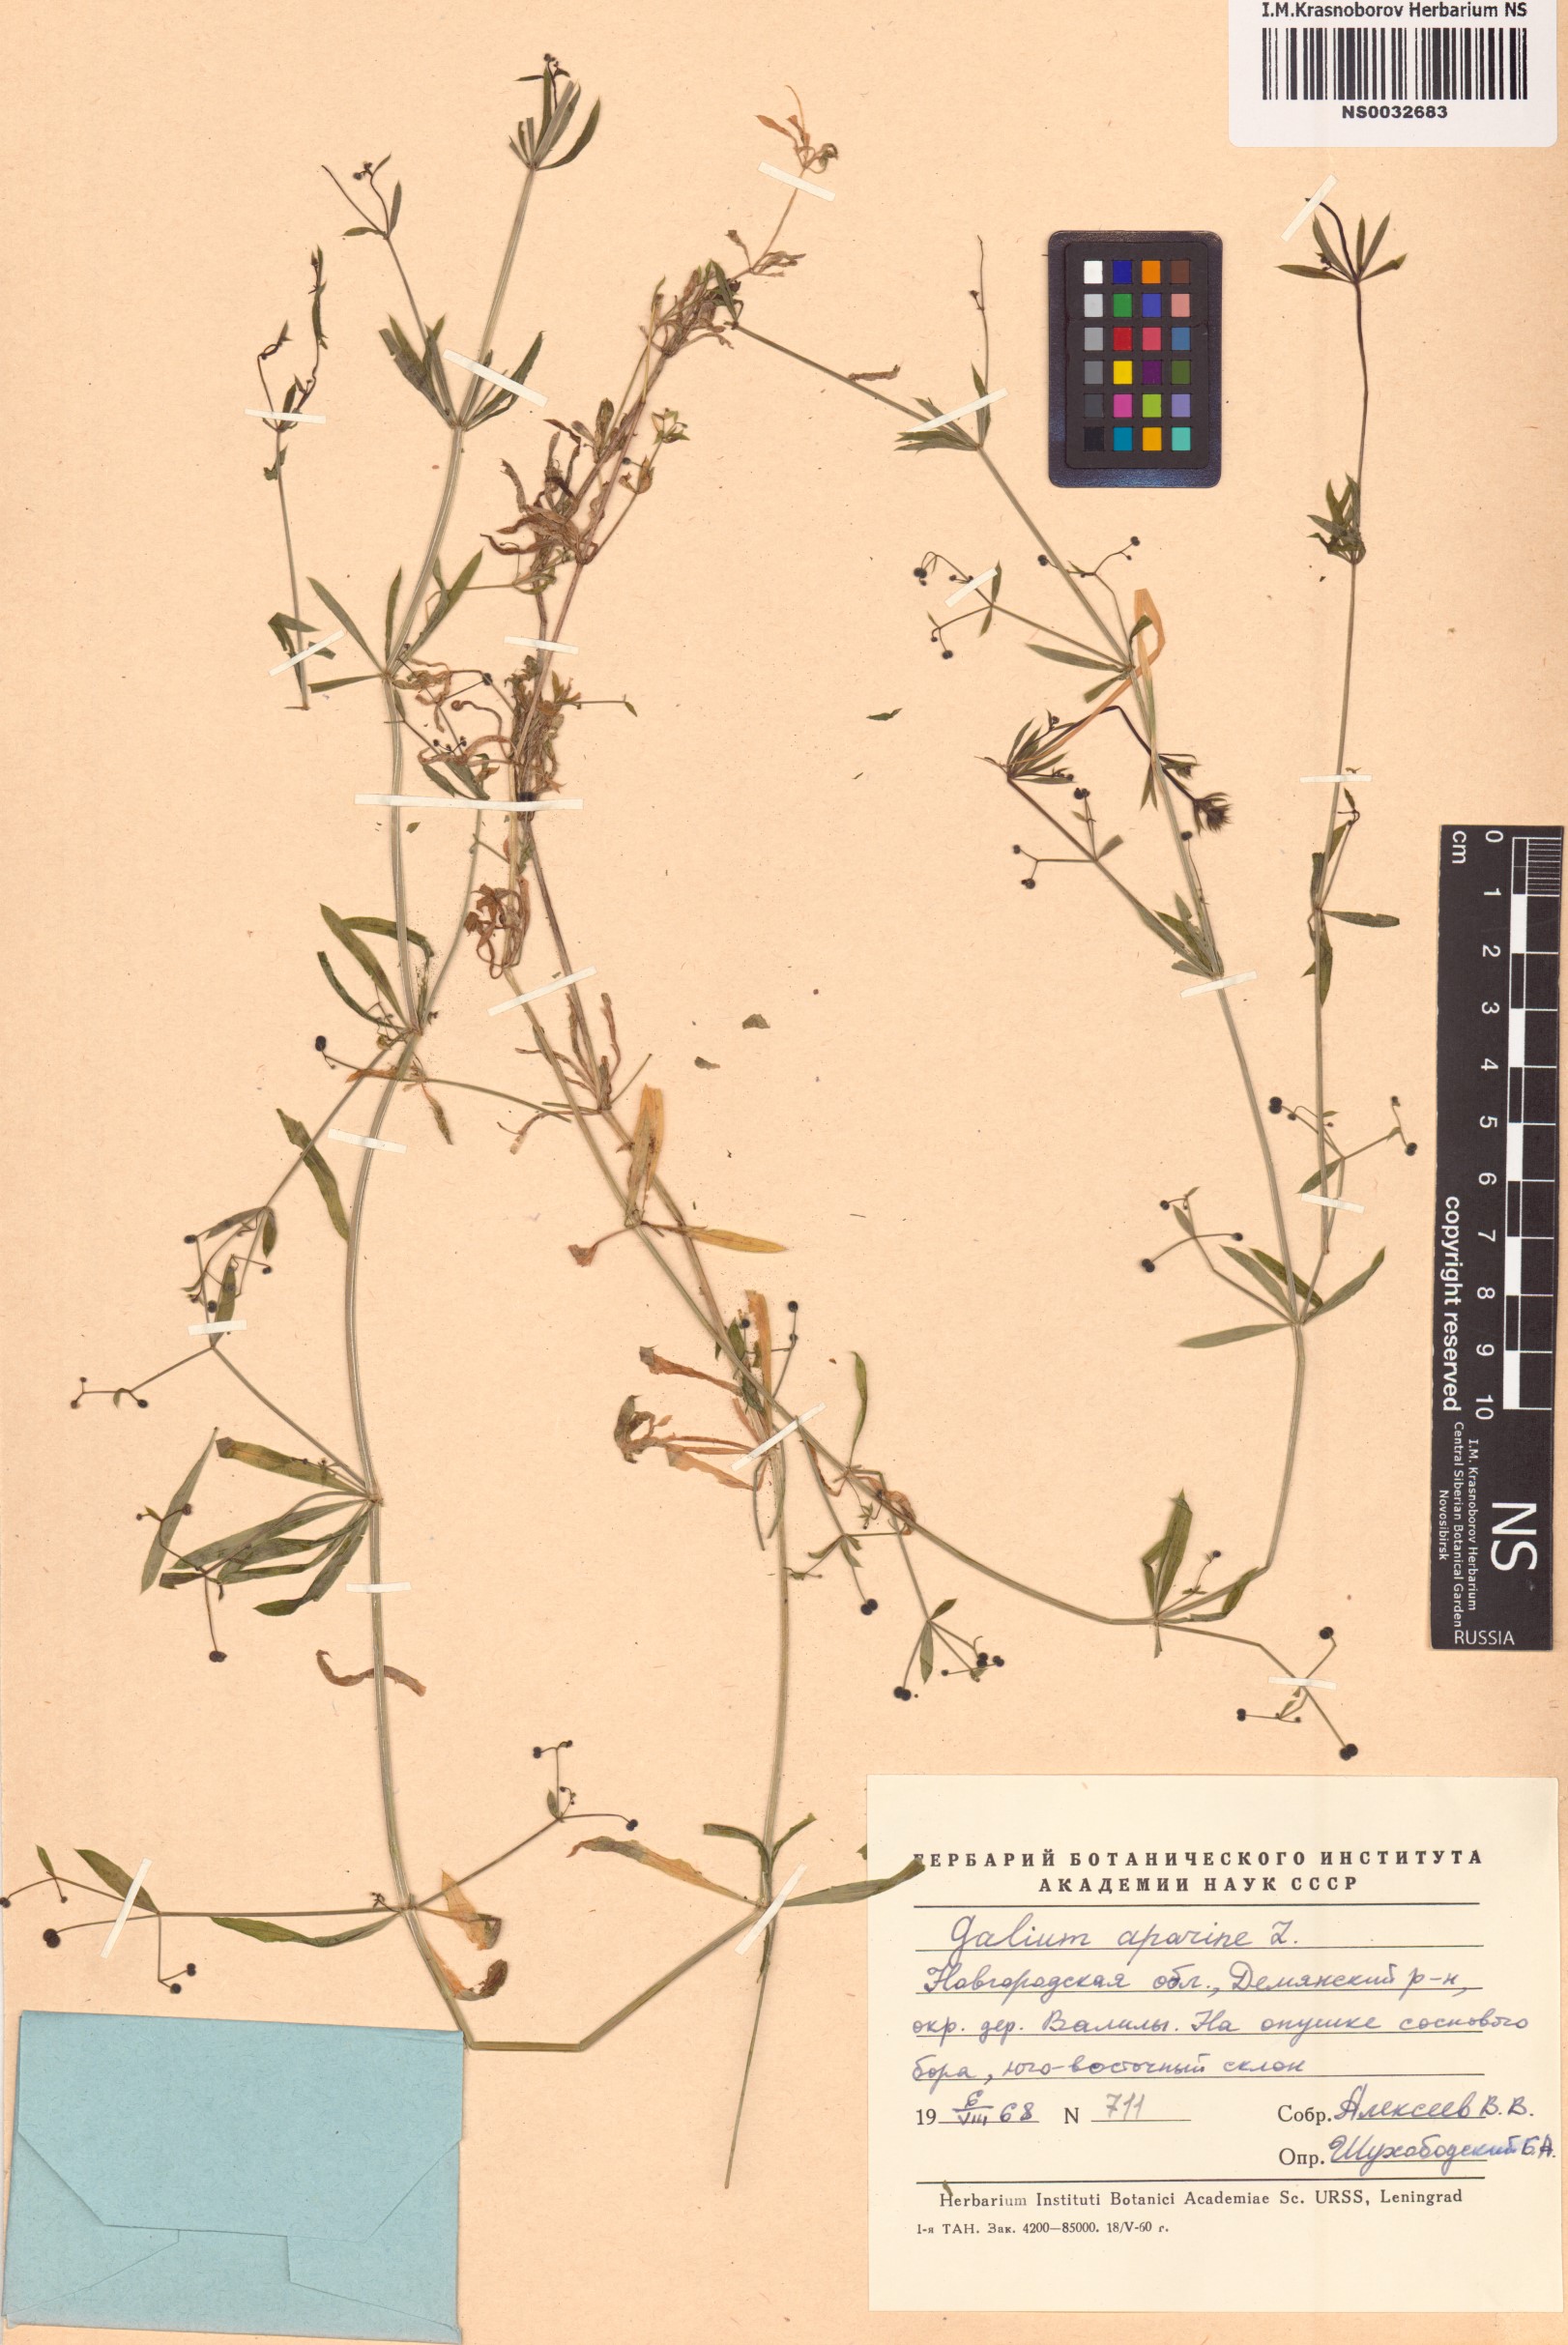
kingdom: Plantae
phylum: Tracheophyta
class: Magnoliopsida
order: Gentianales
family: Rubiaceae
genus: Galium
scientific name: Galium aparine
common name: Cleavers
